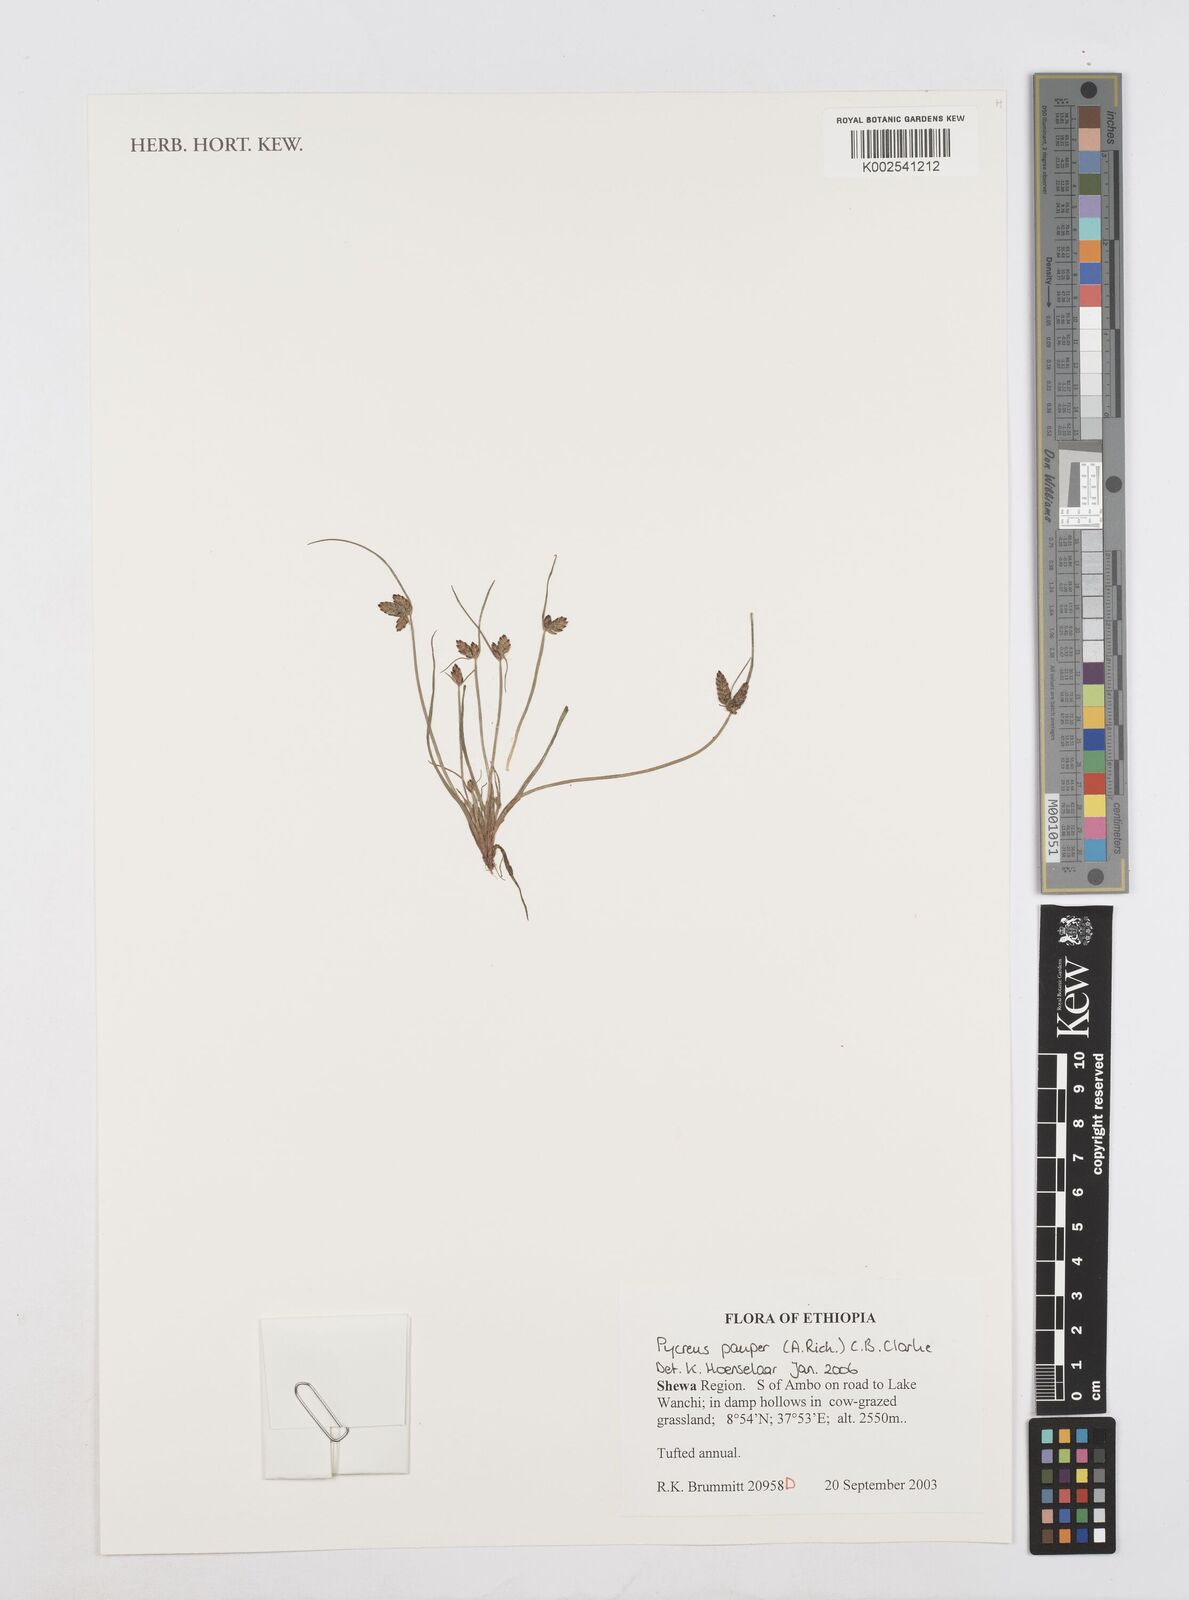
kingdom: Plantae
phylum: Tracheophyta
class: Liliopsida
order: Poales
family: Cyperaceae
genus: Cyperus
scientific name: Cyperus pauper
